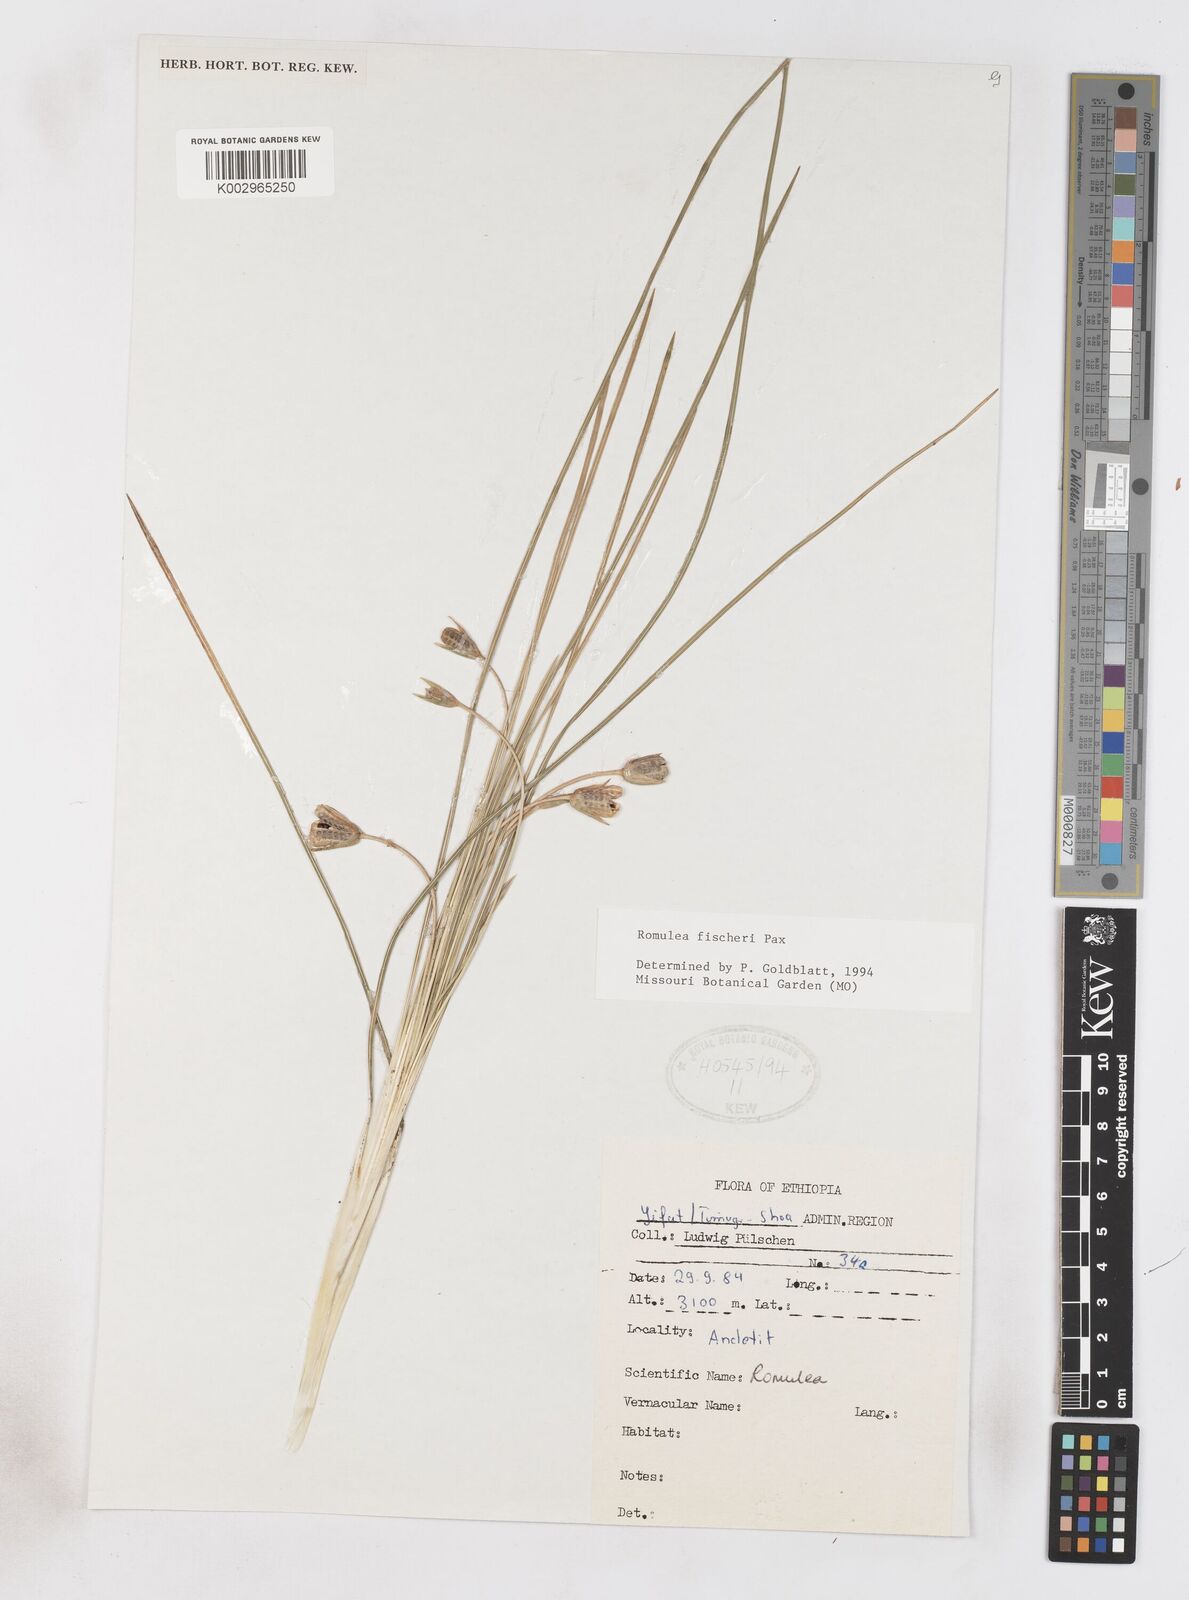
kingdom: Plantae
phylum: Tracheophyta
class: Liliopsida
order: Asparagales
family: Iridaceae
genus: Romulea
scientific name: Romulea fischeri
